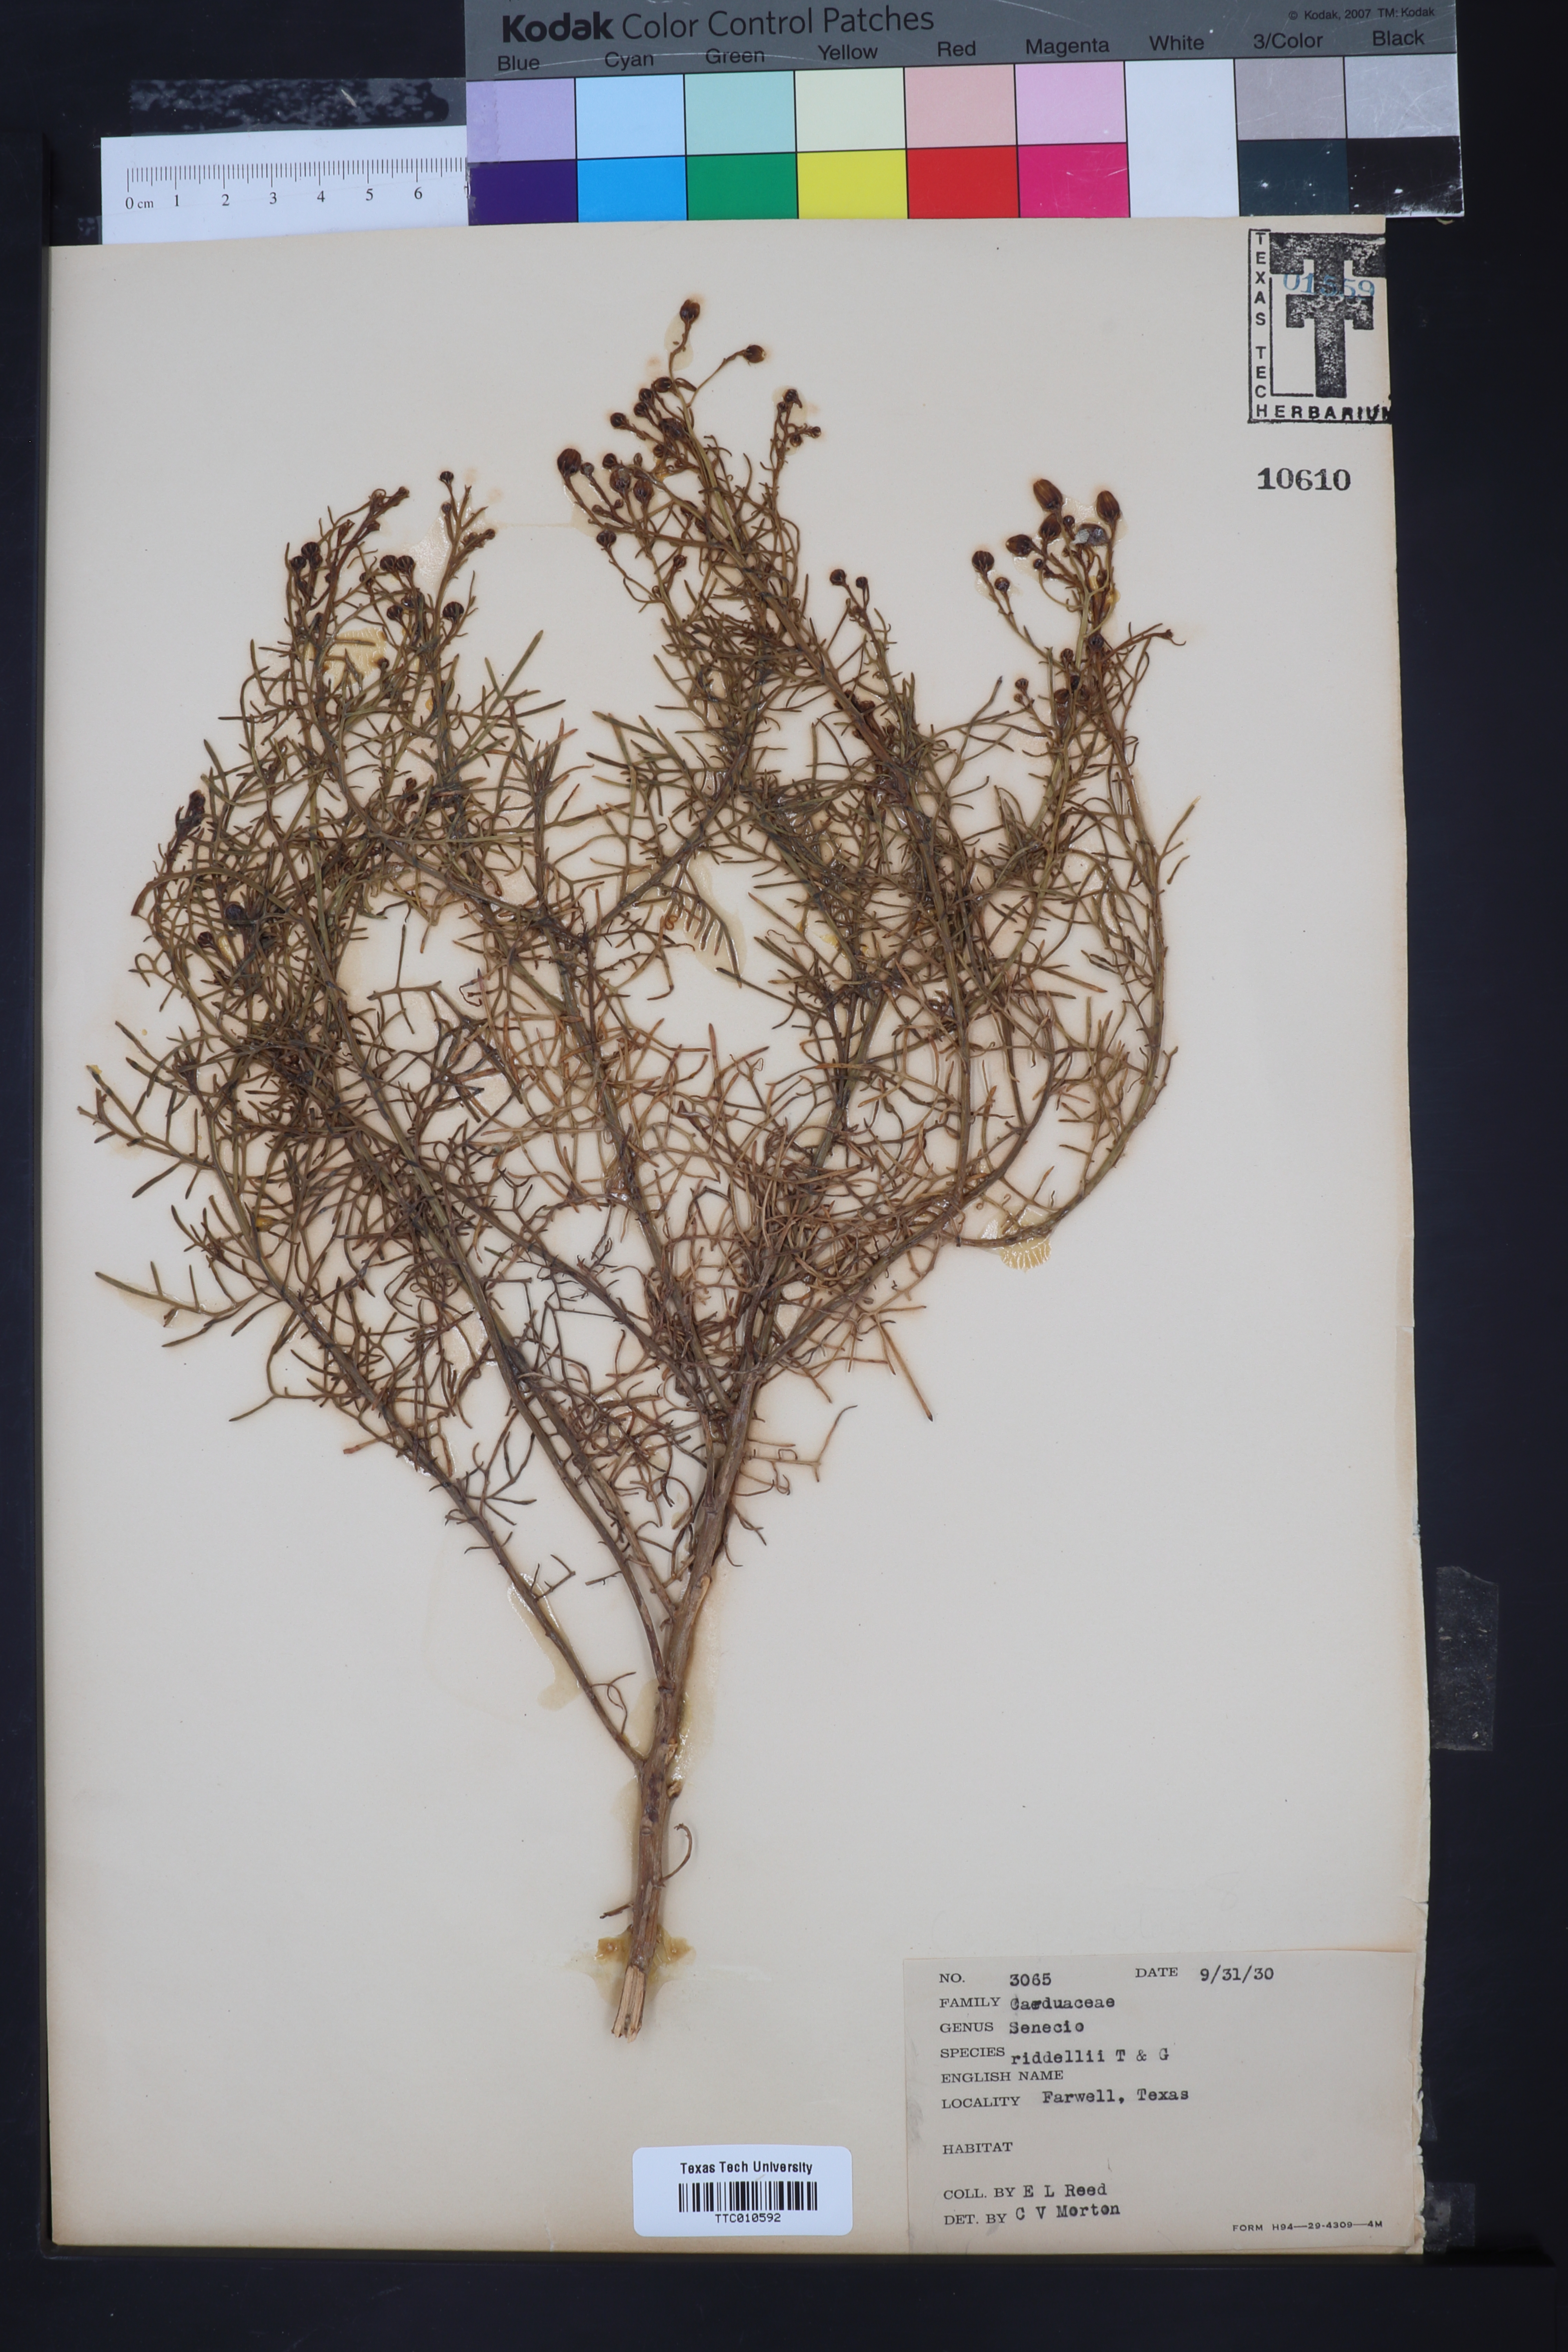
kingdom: Plantae
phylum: Tracheophyta
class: Magnoliopsida
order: Asterales
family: Asteraceae
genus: Senecio
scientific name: Senecio riddellii
